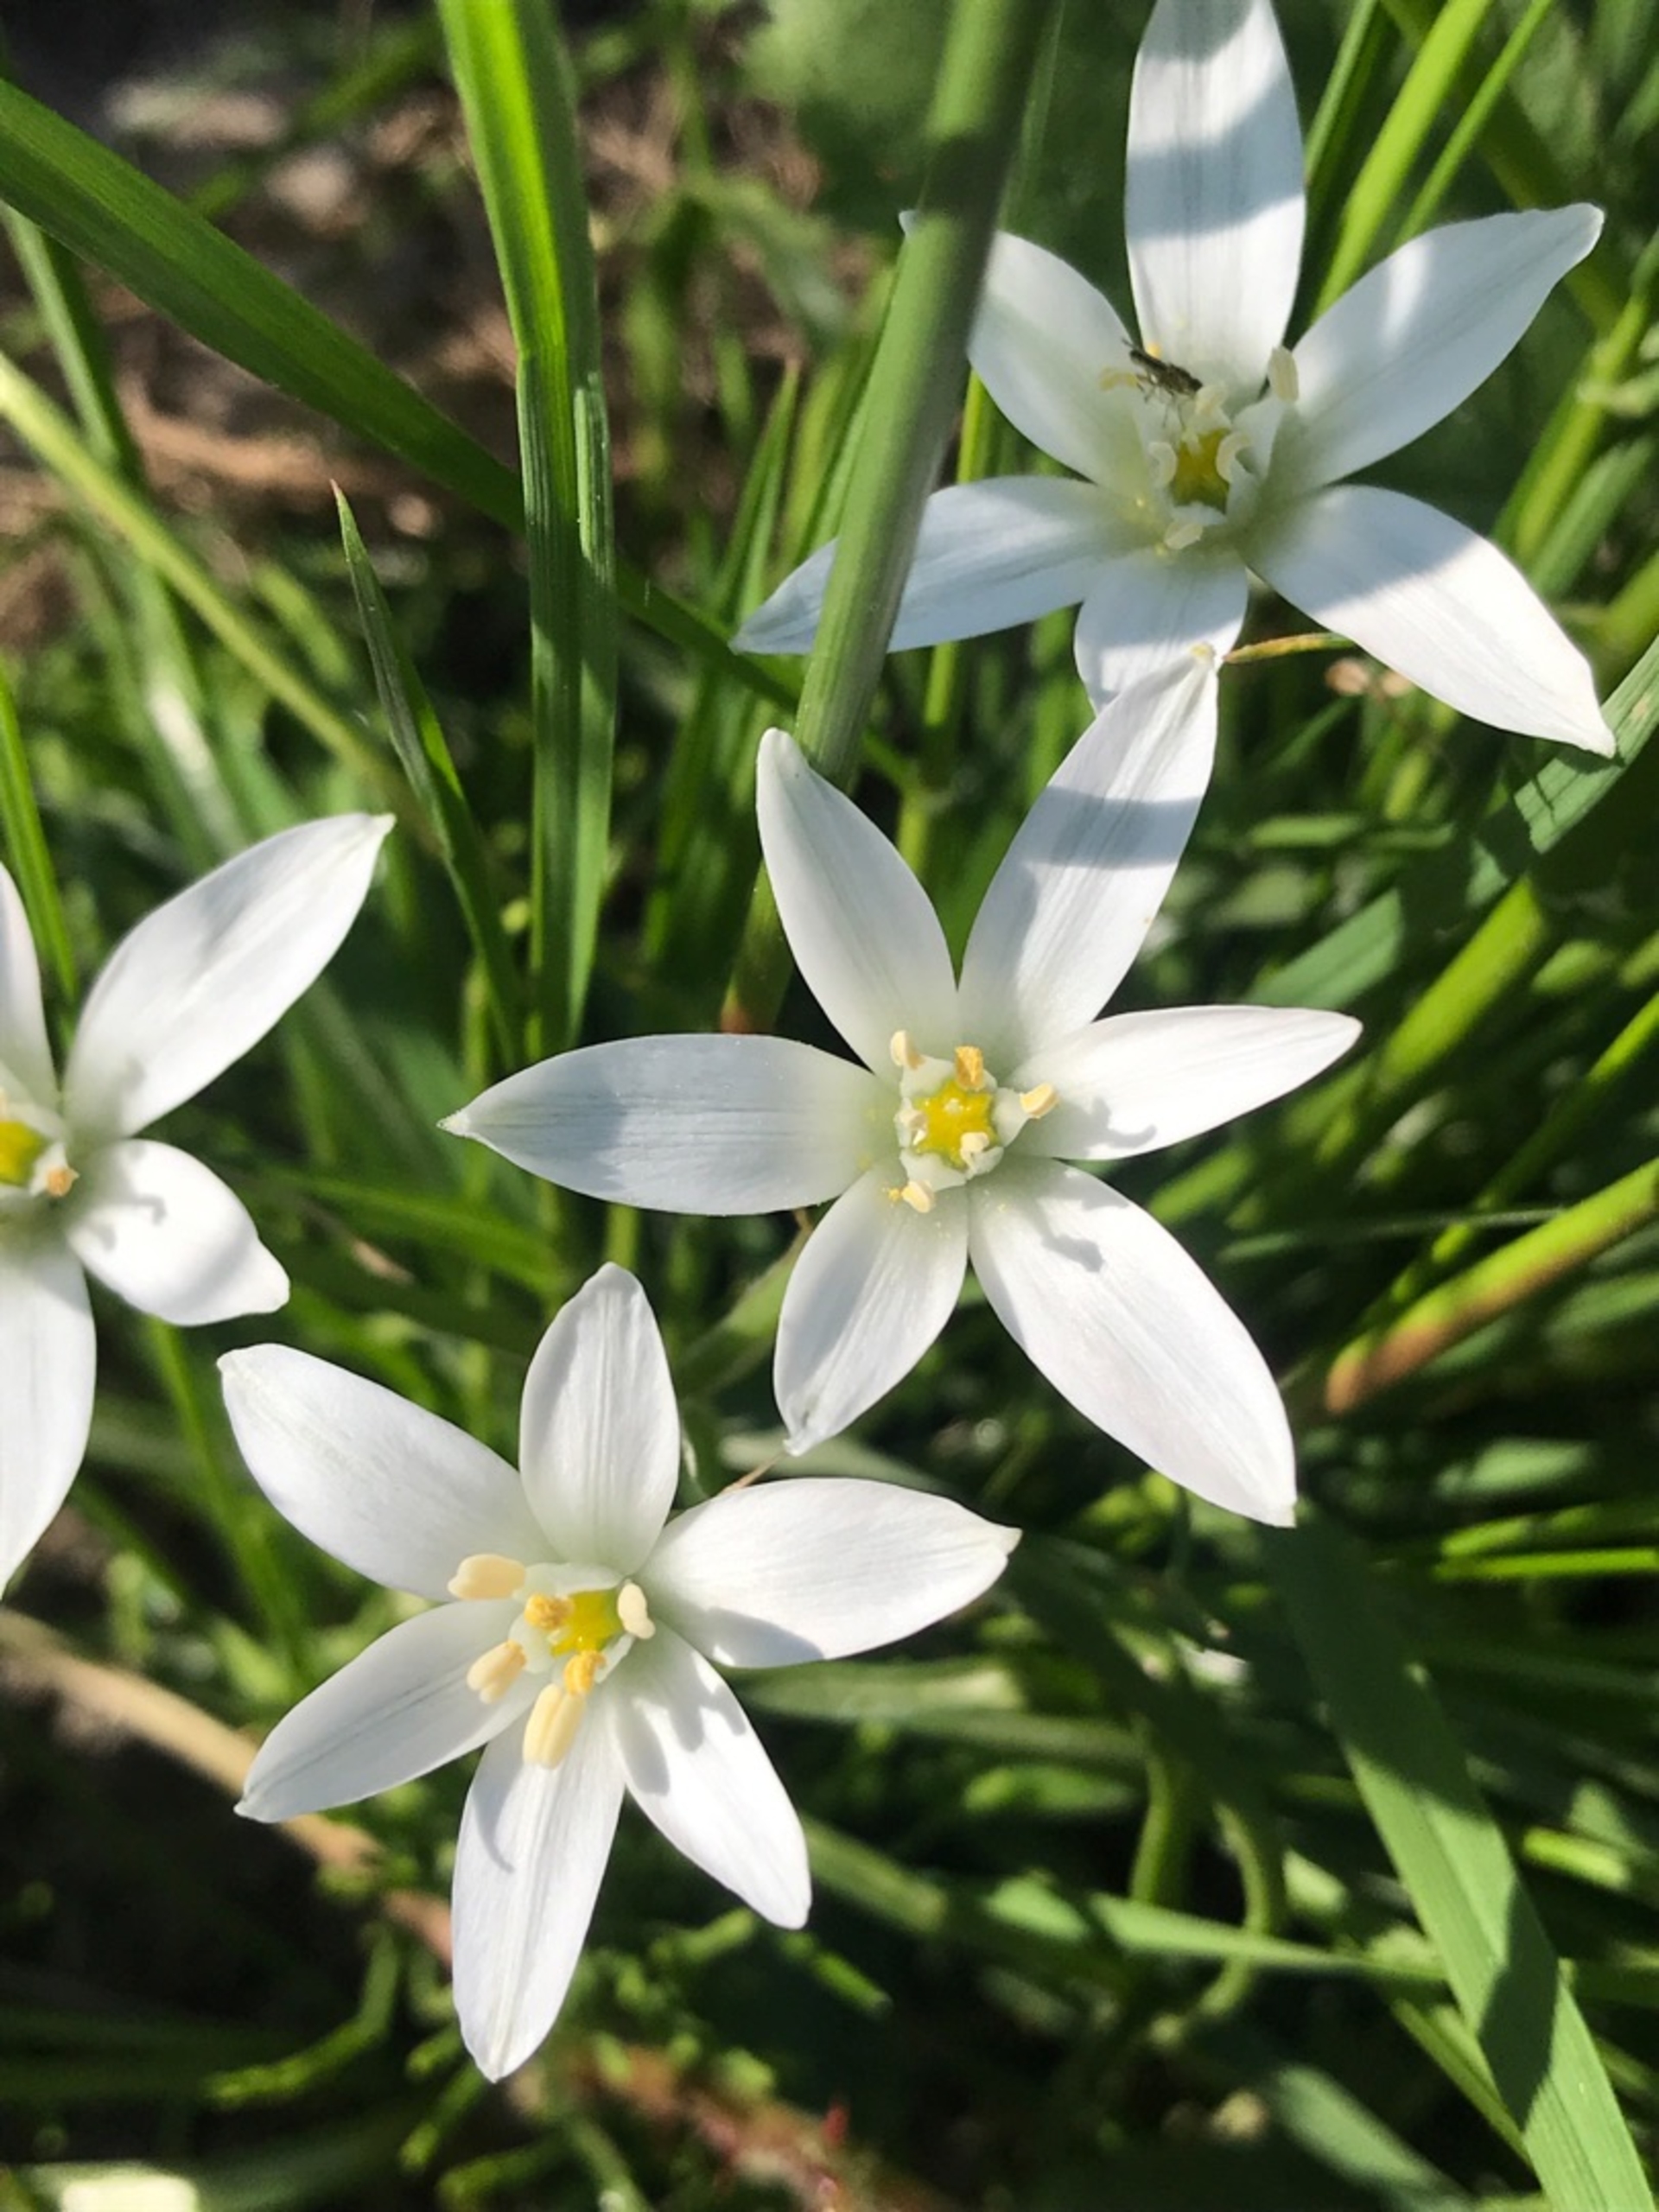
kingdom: Plantae
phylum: Tracheophyta
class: Liliopsida
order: Asparagales
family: Asparagaceae
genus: Ornithogalum
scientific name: Ornithogalum umbellatum
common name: Kost-fuglemælk
